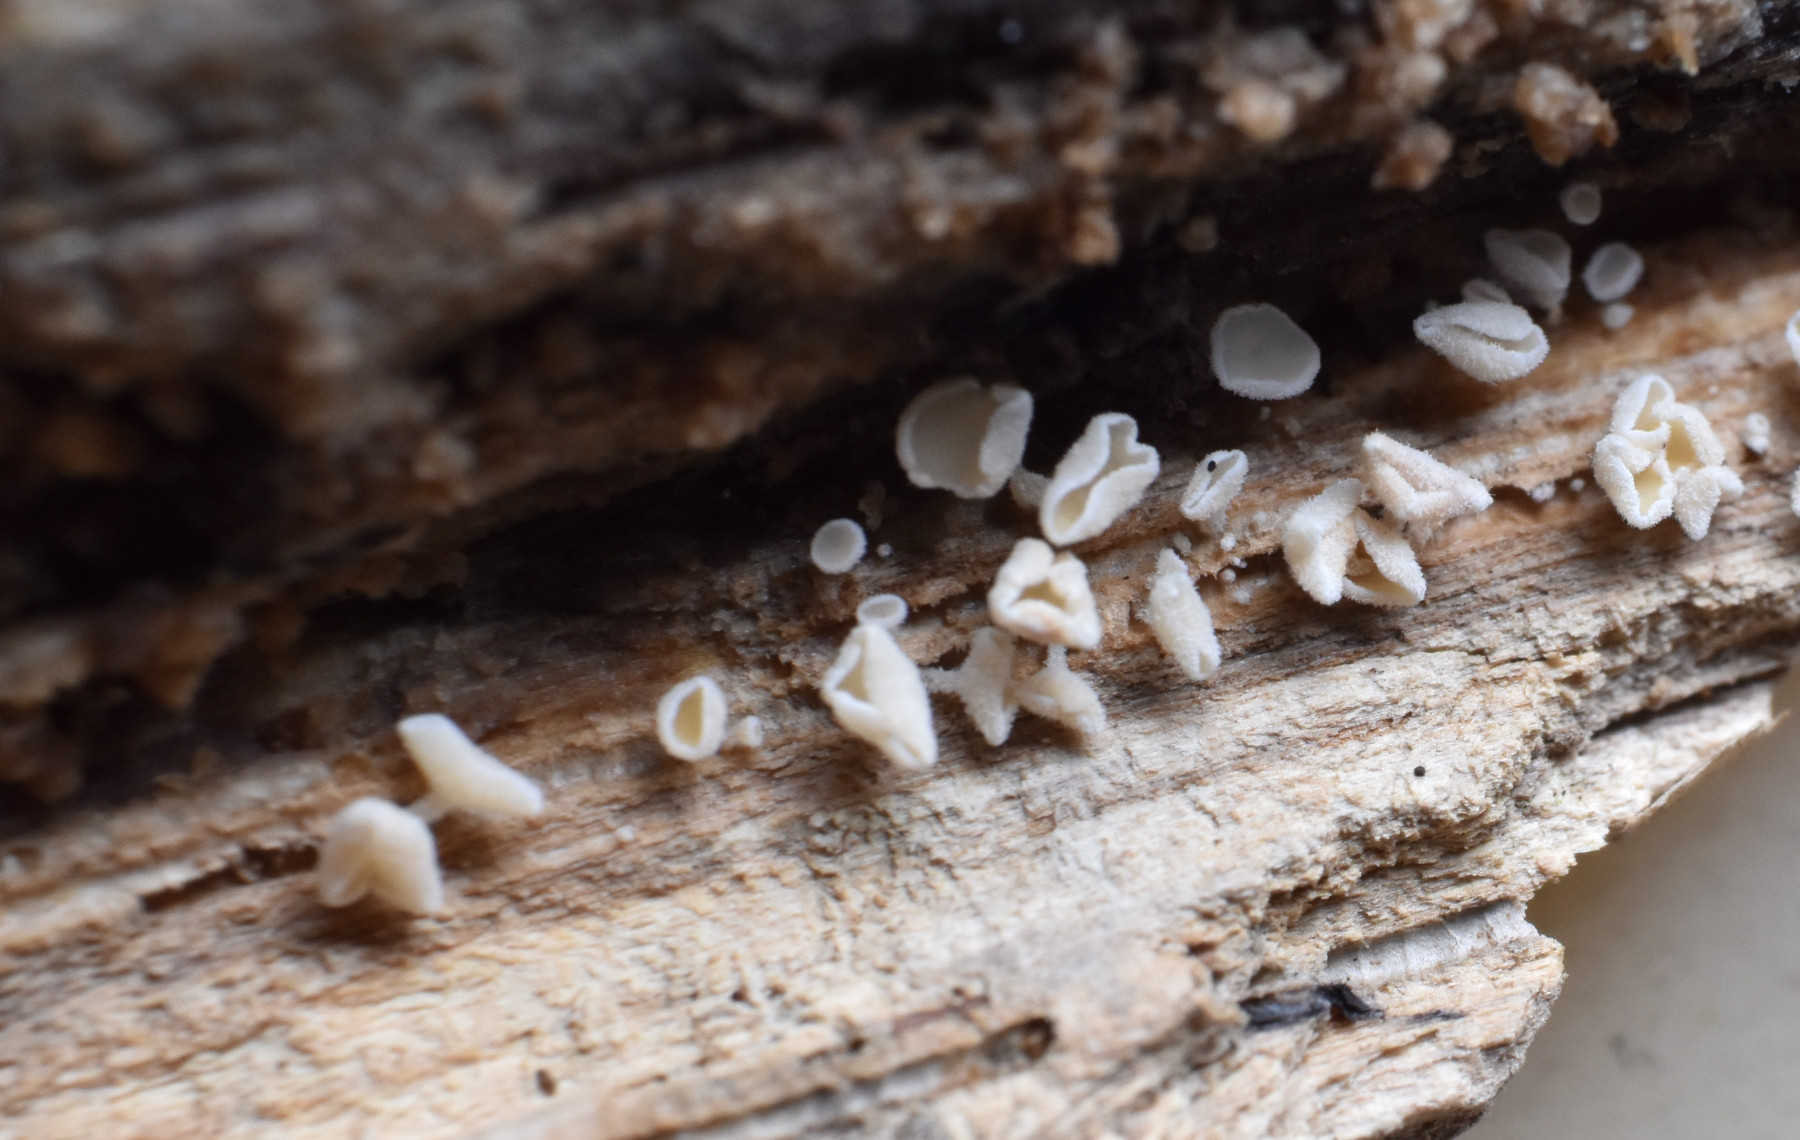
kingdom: Fungi
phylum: Ascomycota
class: Leotiomycetes
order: Helotiales
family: Lachnaceae
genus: Lachnum
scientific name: Lachnum impudicum
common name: vinter-frynseskive
